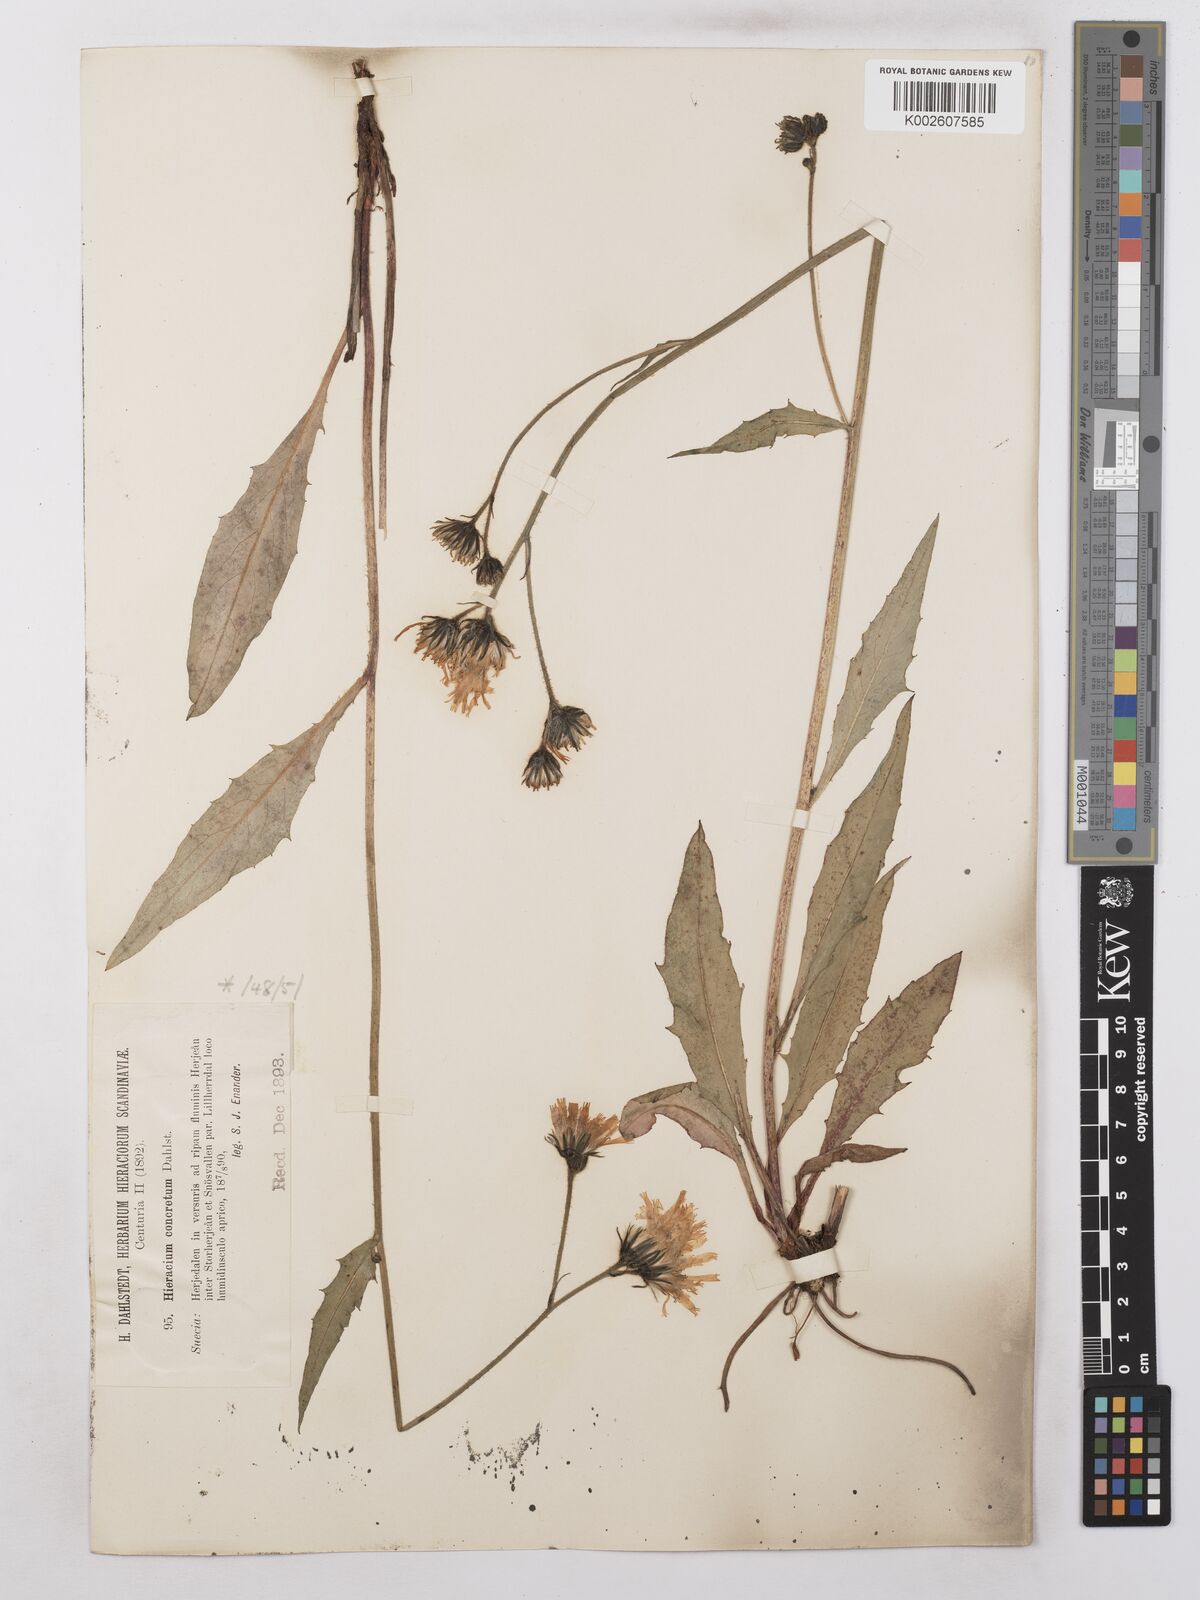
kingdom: Plantae
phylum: Tracheophyta
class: Magnoliopsida
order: Asterales
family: Asteraceae
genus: Hieracium
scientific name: Hieracium concretum
